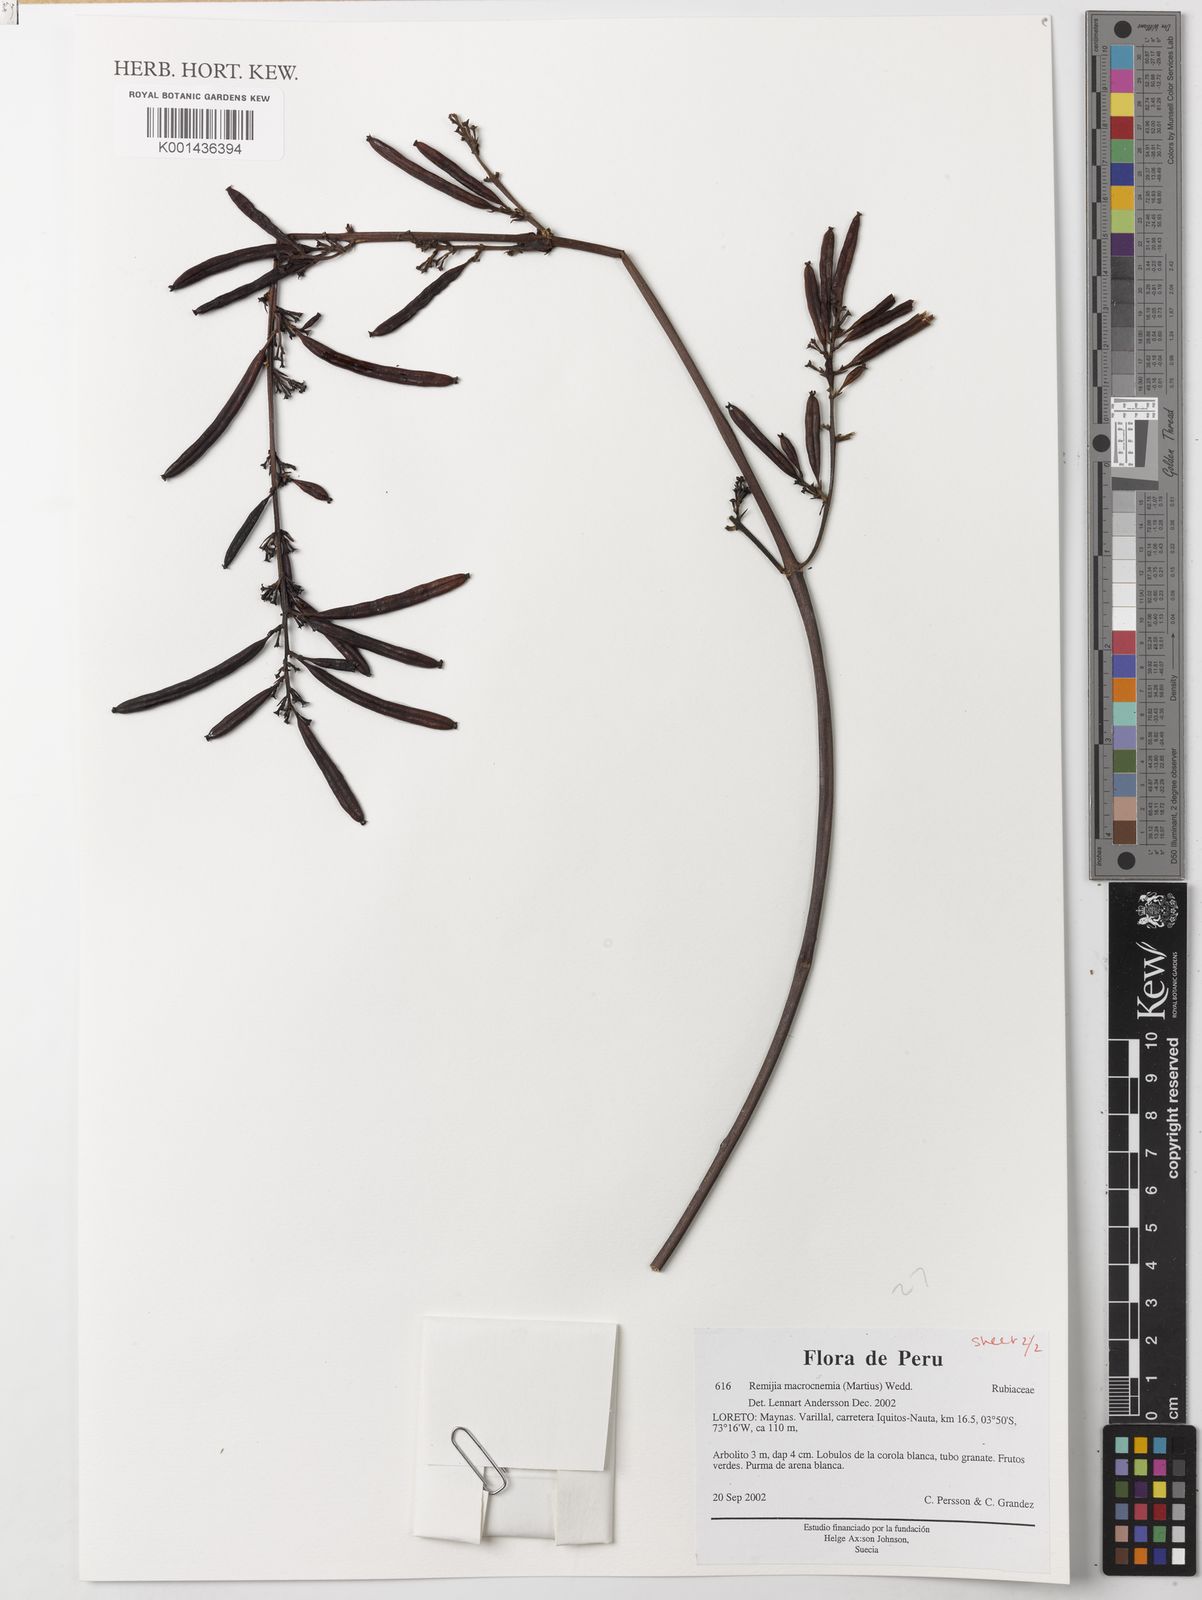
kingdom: Plantae
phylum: Tracheophyta
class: Magnoliopsida
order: Gentianales
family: Rubiaceae
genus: Remijia
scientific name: Remijia macrocnemia
